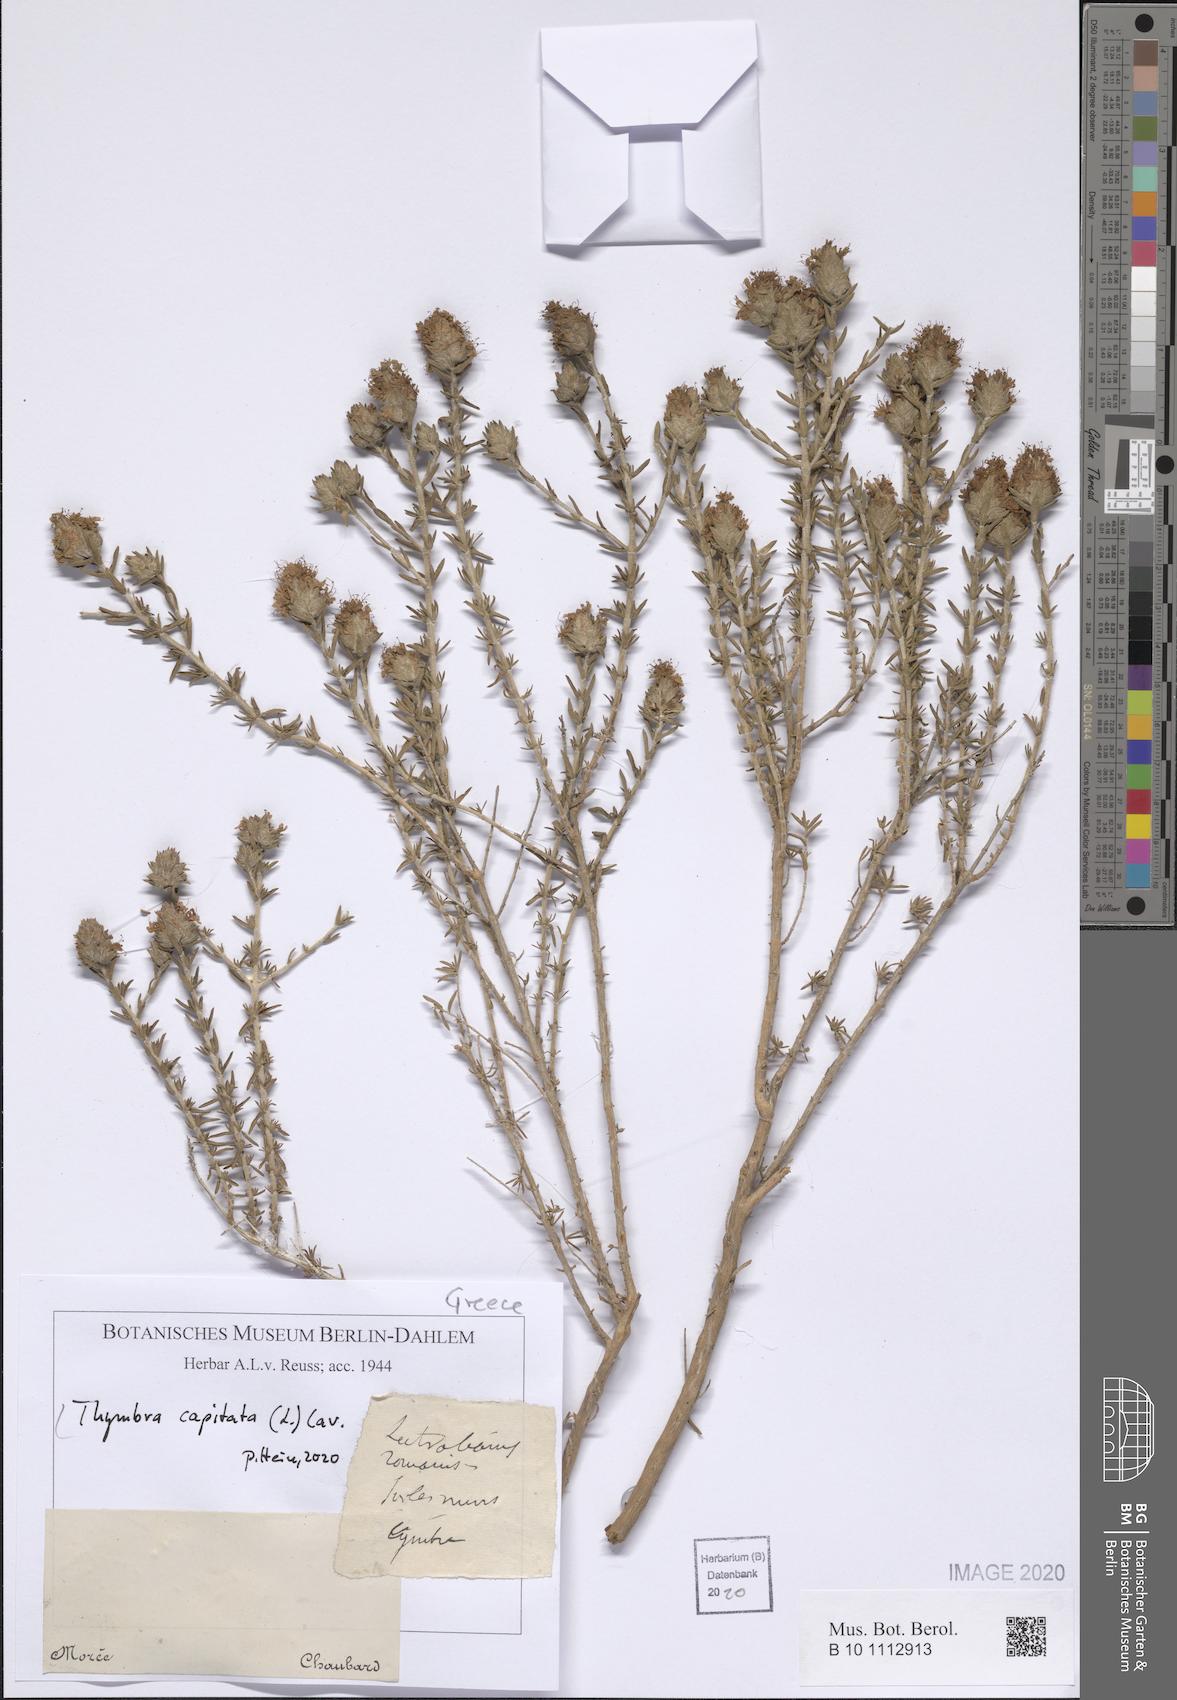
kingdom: Plantae
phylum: Tracheophyta
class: Magnoliopsida
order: Lamiales
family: Lamiaceae
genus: Thymbra
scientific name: Thymbra capitata
